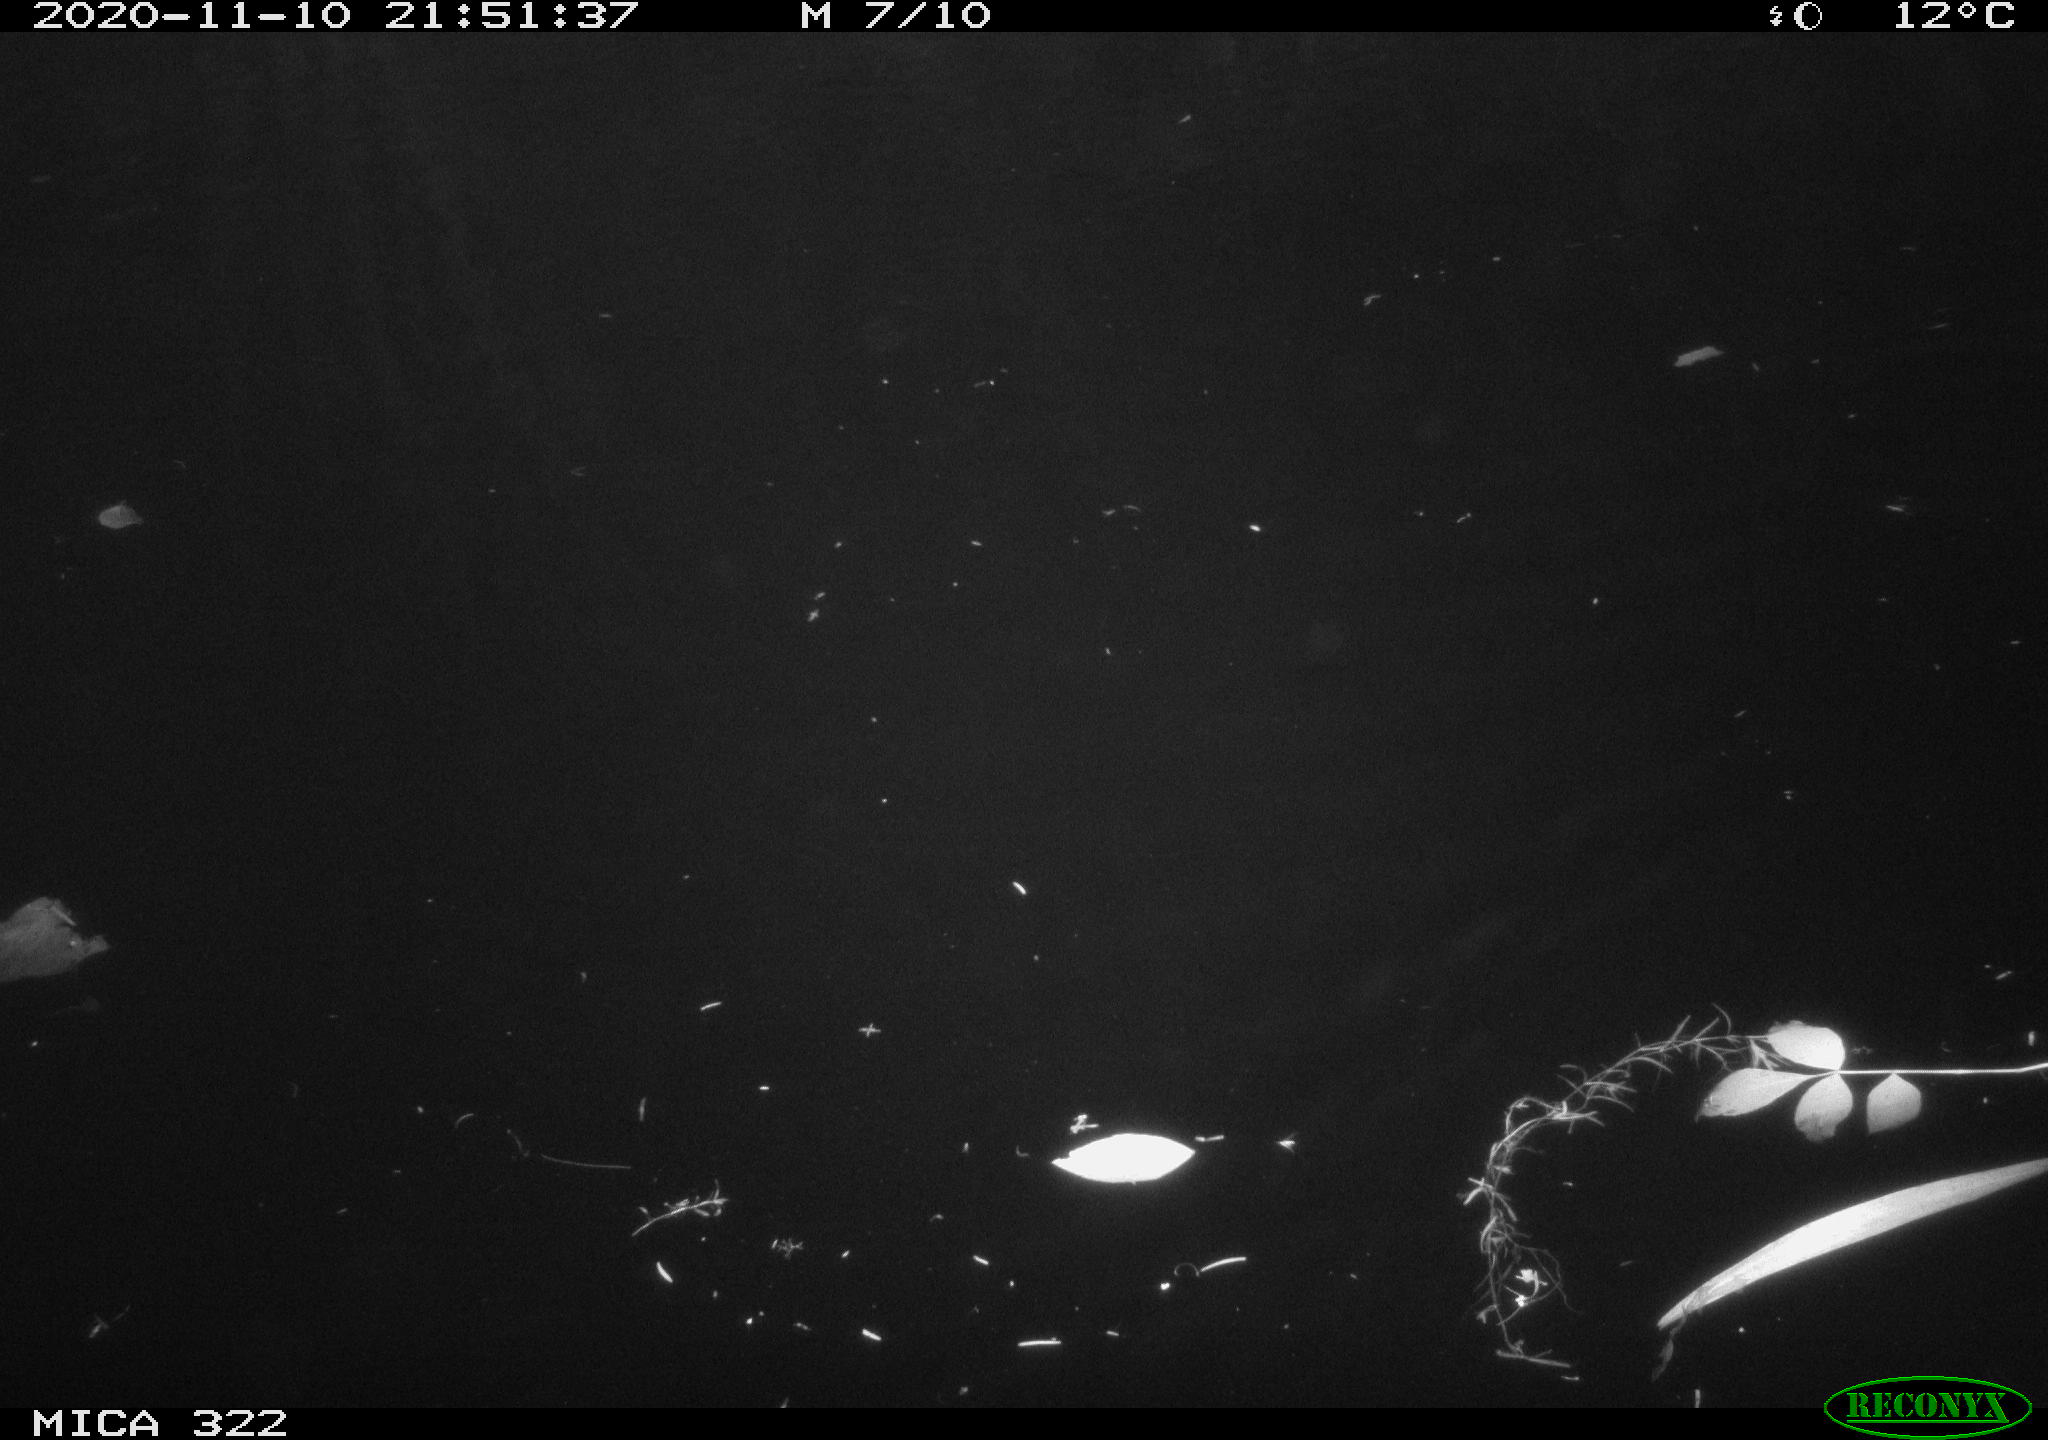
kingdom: Animalia
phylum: Chordata
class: Mammalia
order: Rodentia
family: Muridae
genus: Rattus
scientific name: Rattus norvegicus
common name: Brown rat
